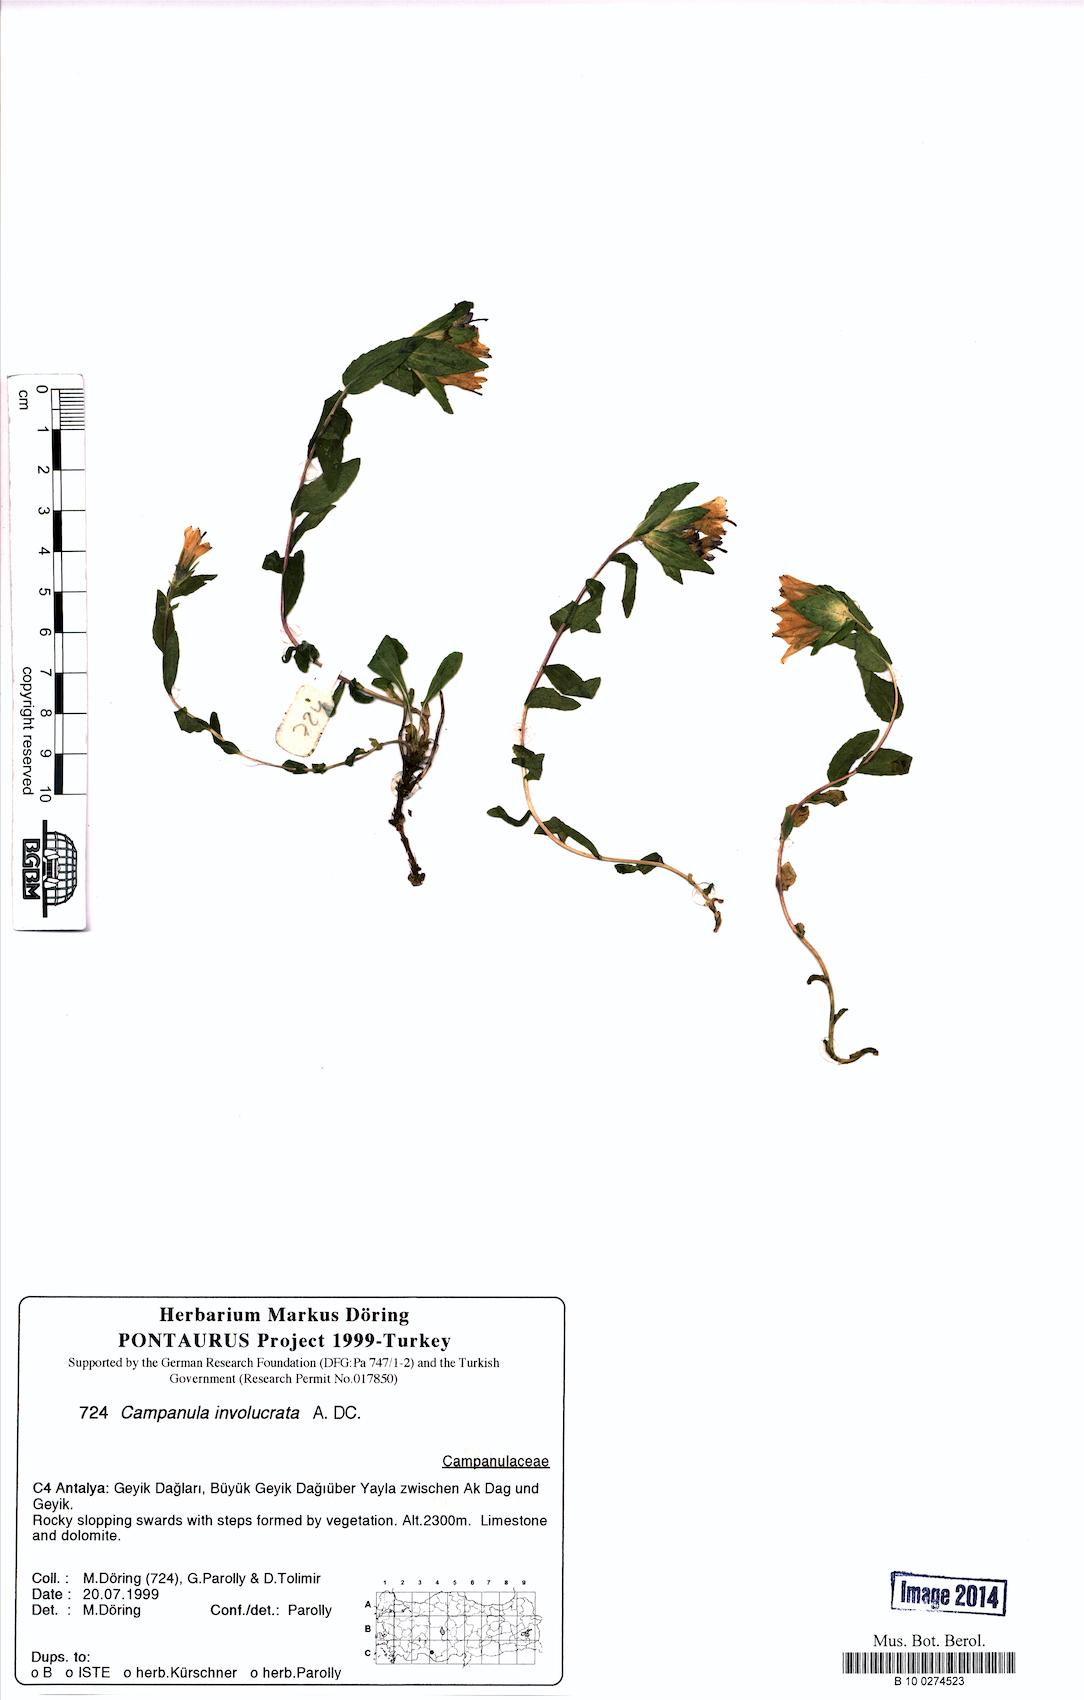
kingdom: Plantae
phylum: Tracheophyta
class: Magnoliopsida
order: Asterales
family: Campanulaceae
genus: Campanula
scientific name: Campanula involucrata
